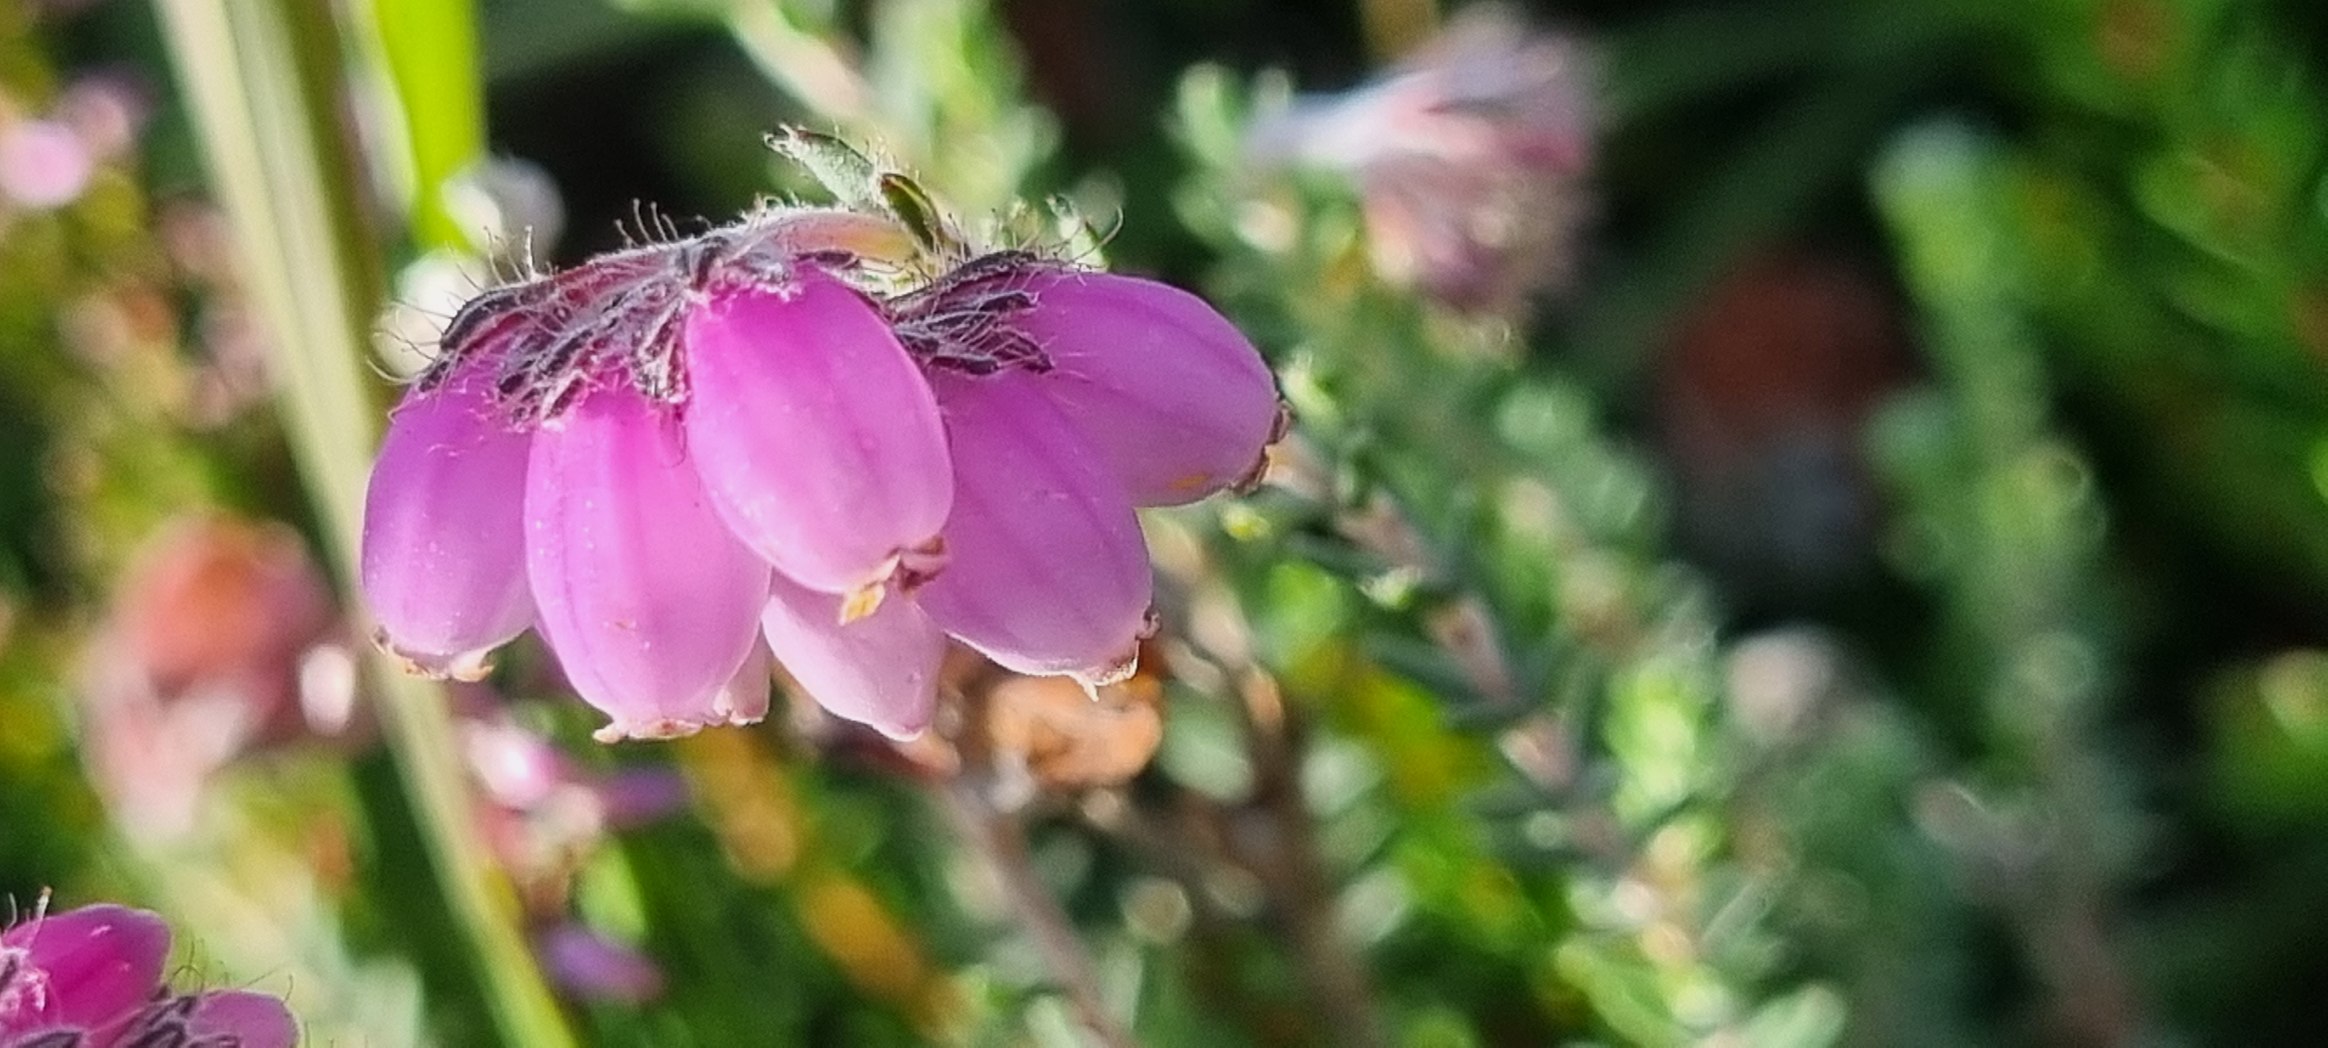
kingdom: Plantae
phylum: Tracheophyta
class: Magnoliopsida
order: Ericales
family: Ericaceae
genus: Erica
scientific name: Erica tetralix
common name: Klokkelyng
